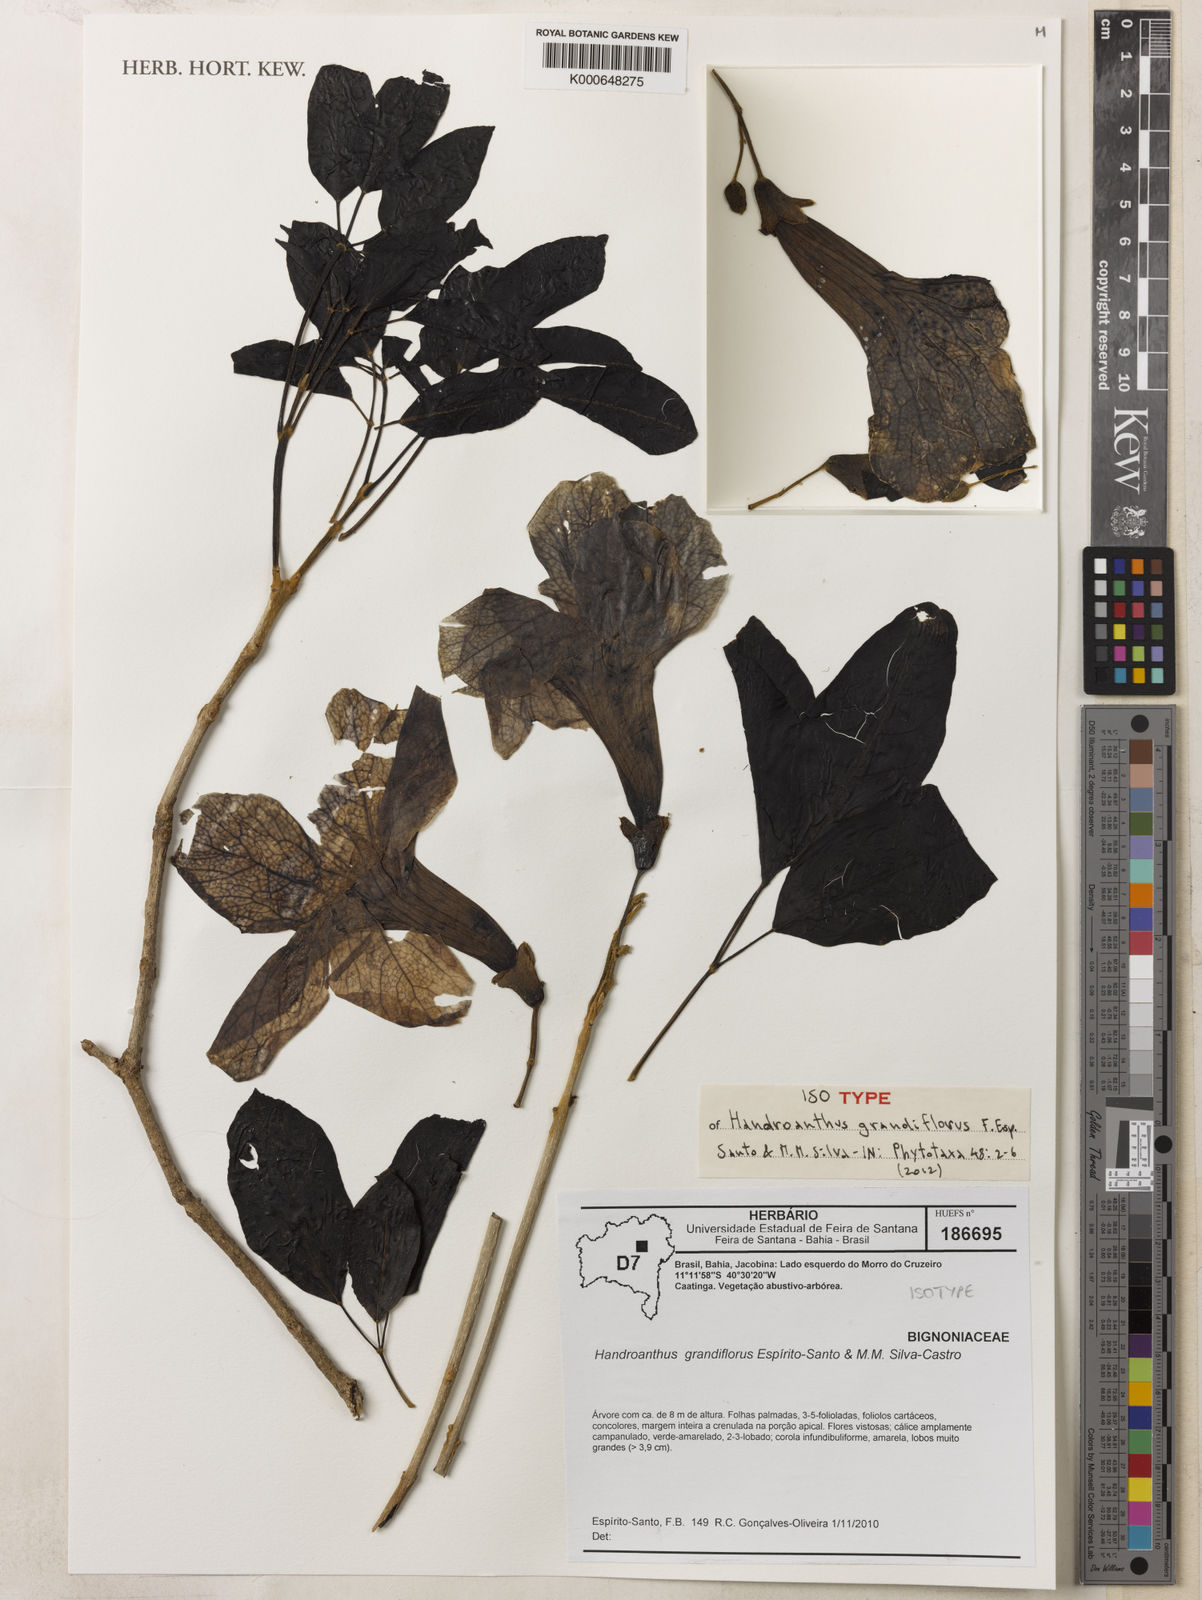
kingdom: Plantae
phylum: Tracheophyta
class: Magnoliopsida
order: Lamiales
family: Bignoniaceae
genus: Handroanthus
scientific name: Handroanthus grandiflorus
